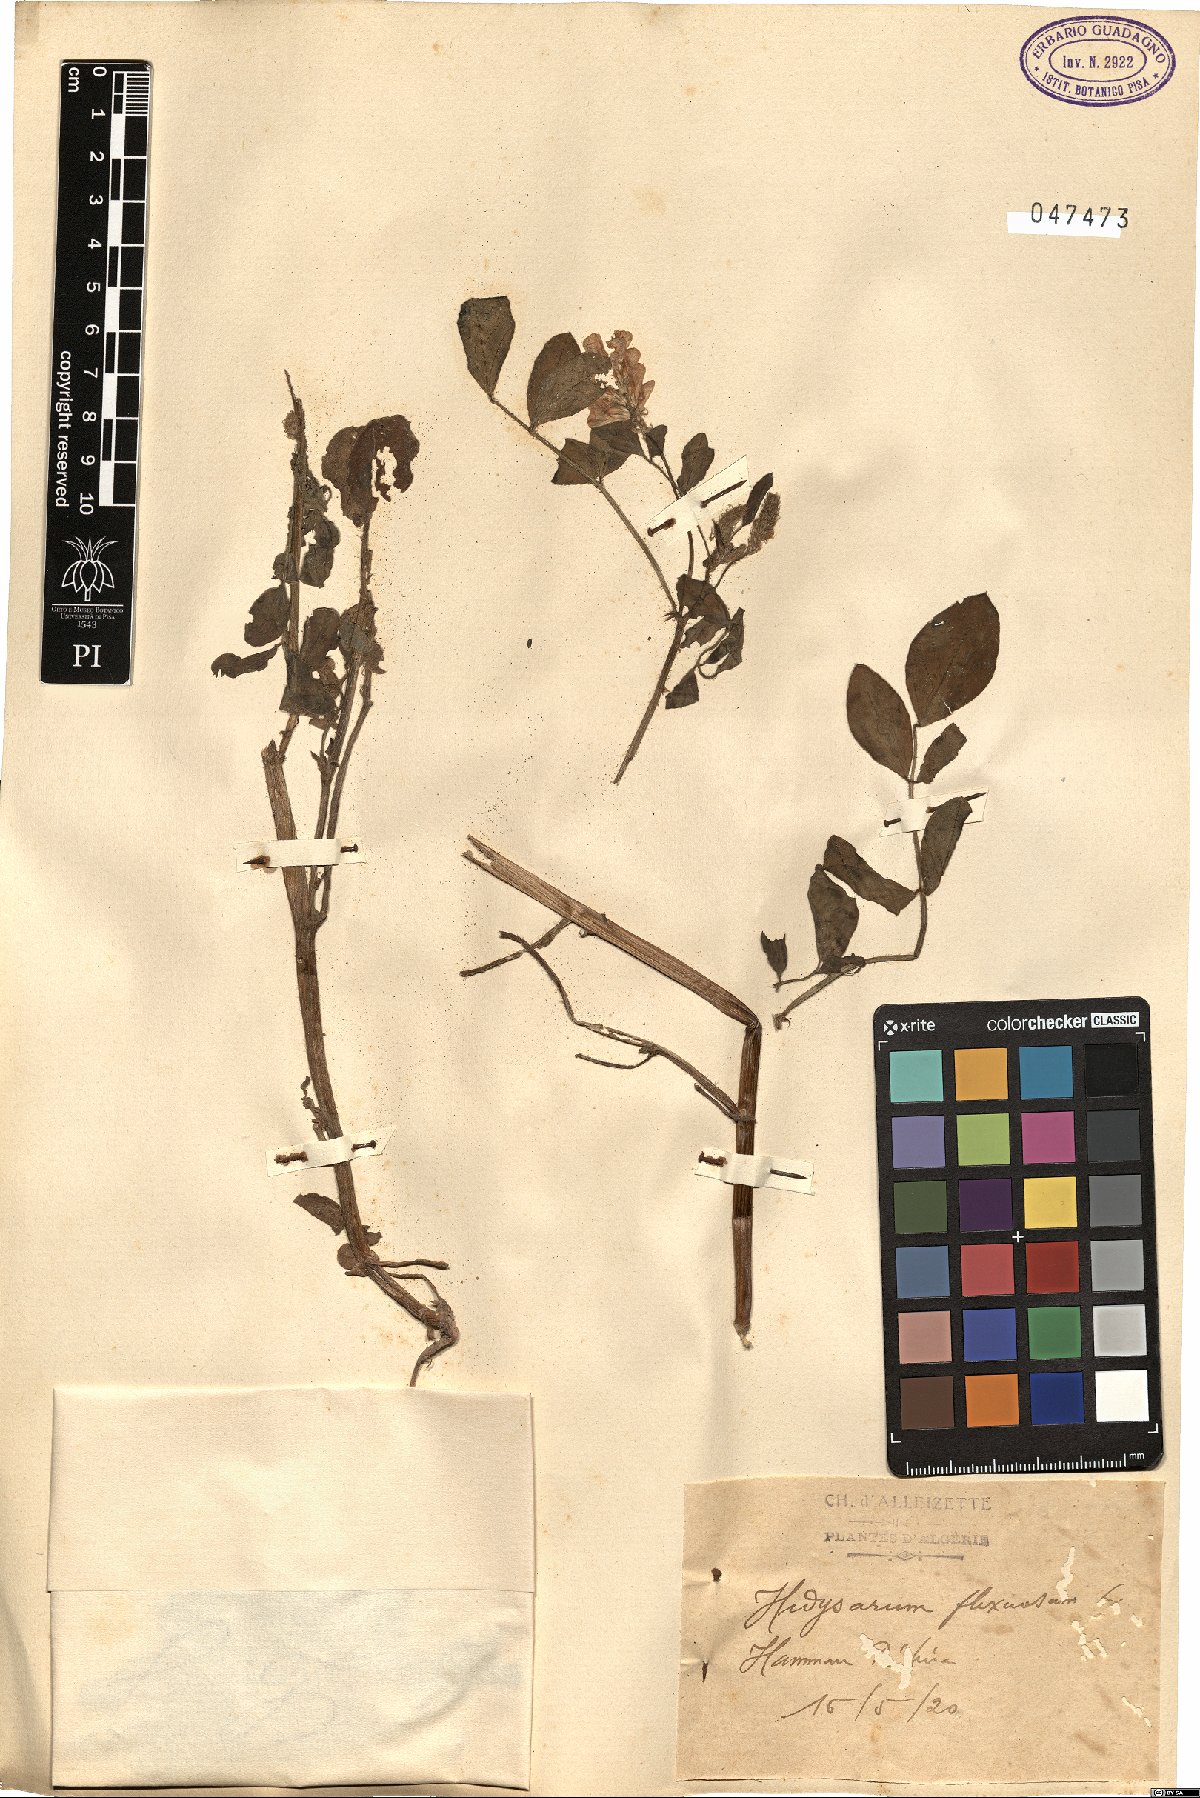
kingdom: Plantae
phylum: Tracheophyta
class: Magnoliopsida
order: Fabales
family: Fabaceae
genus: Sulla
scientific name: Sulla flexuosa
